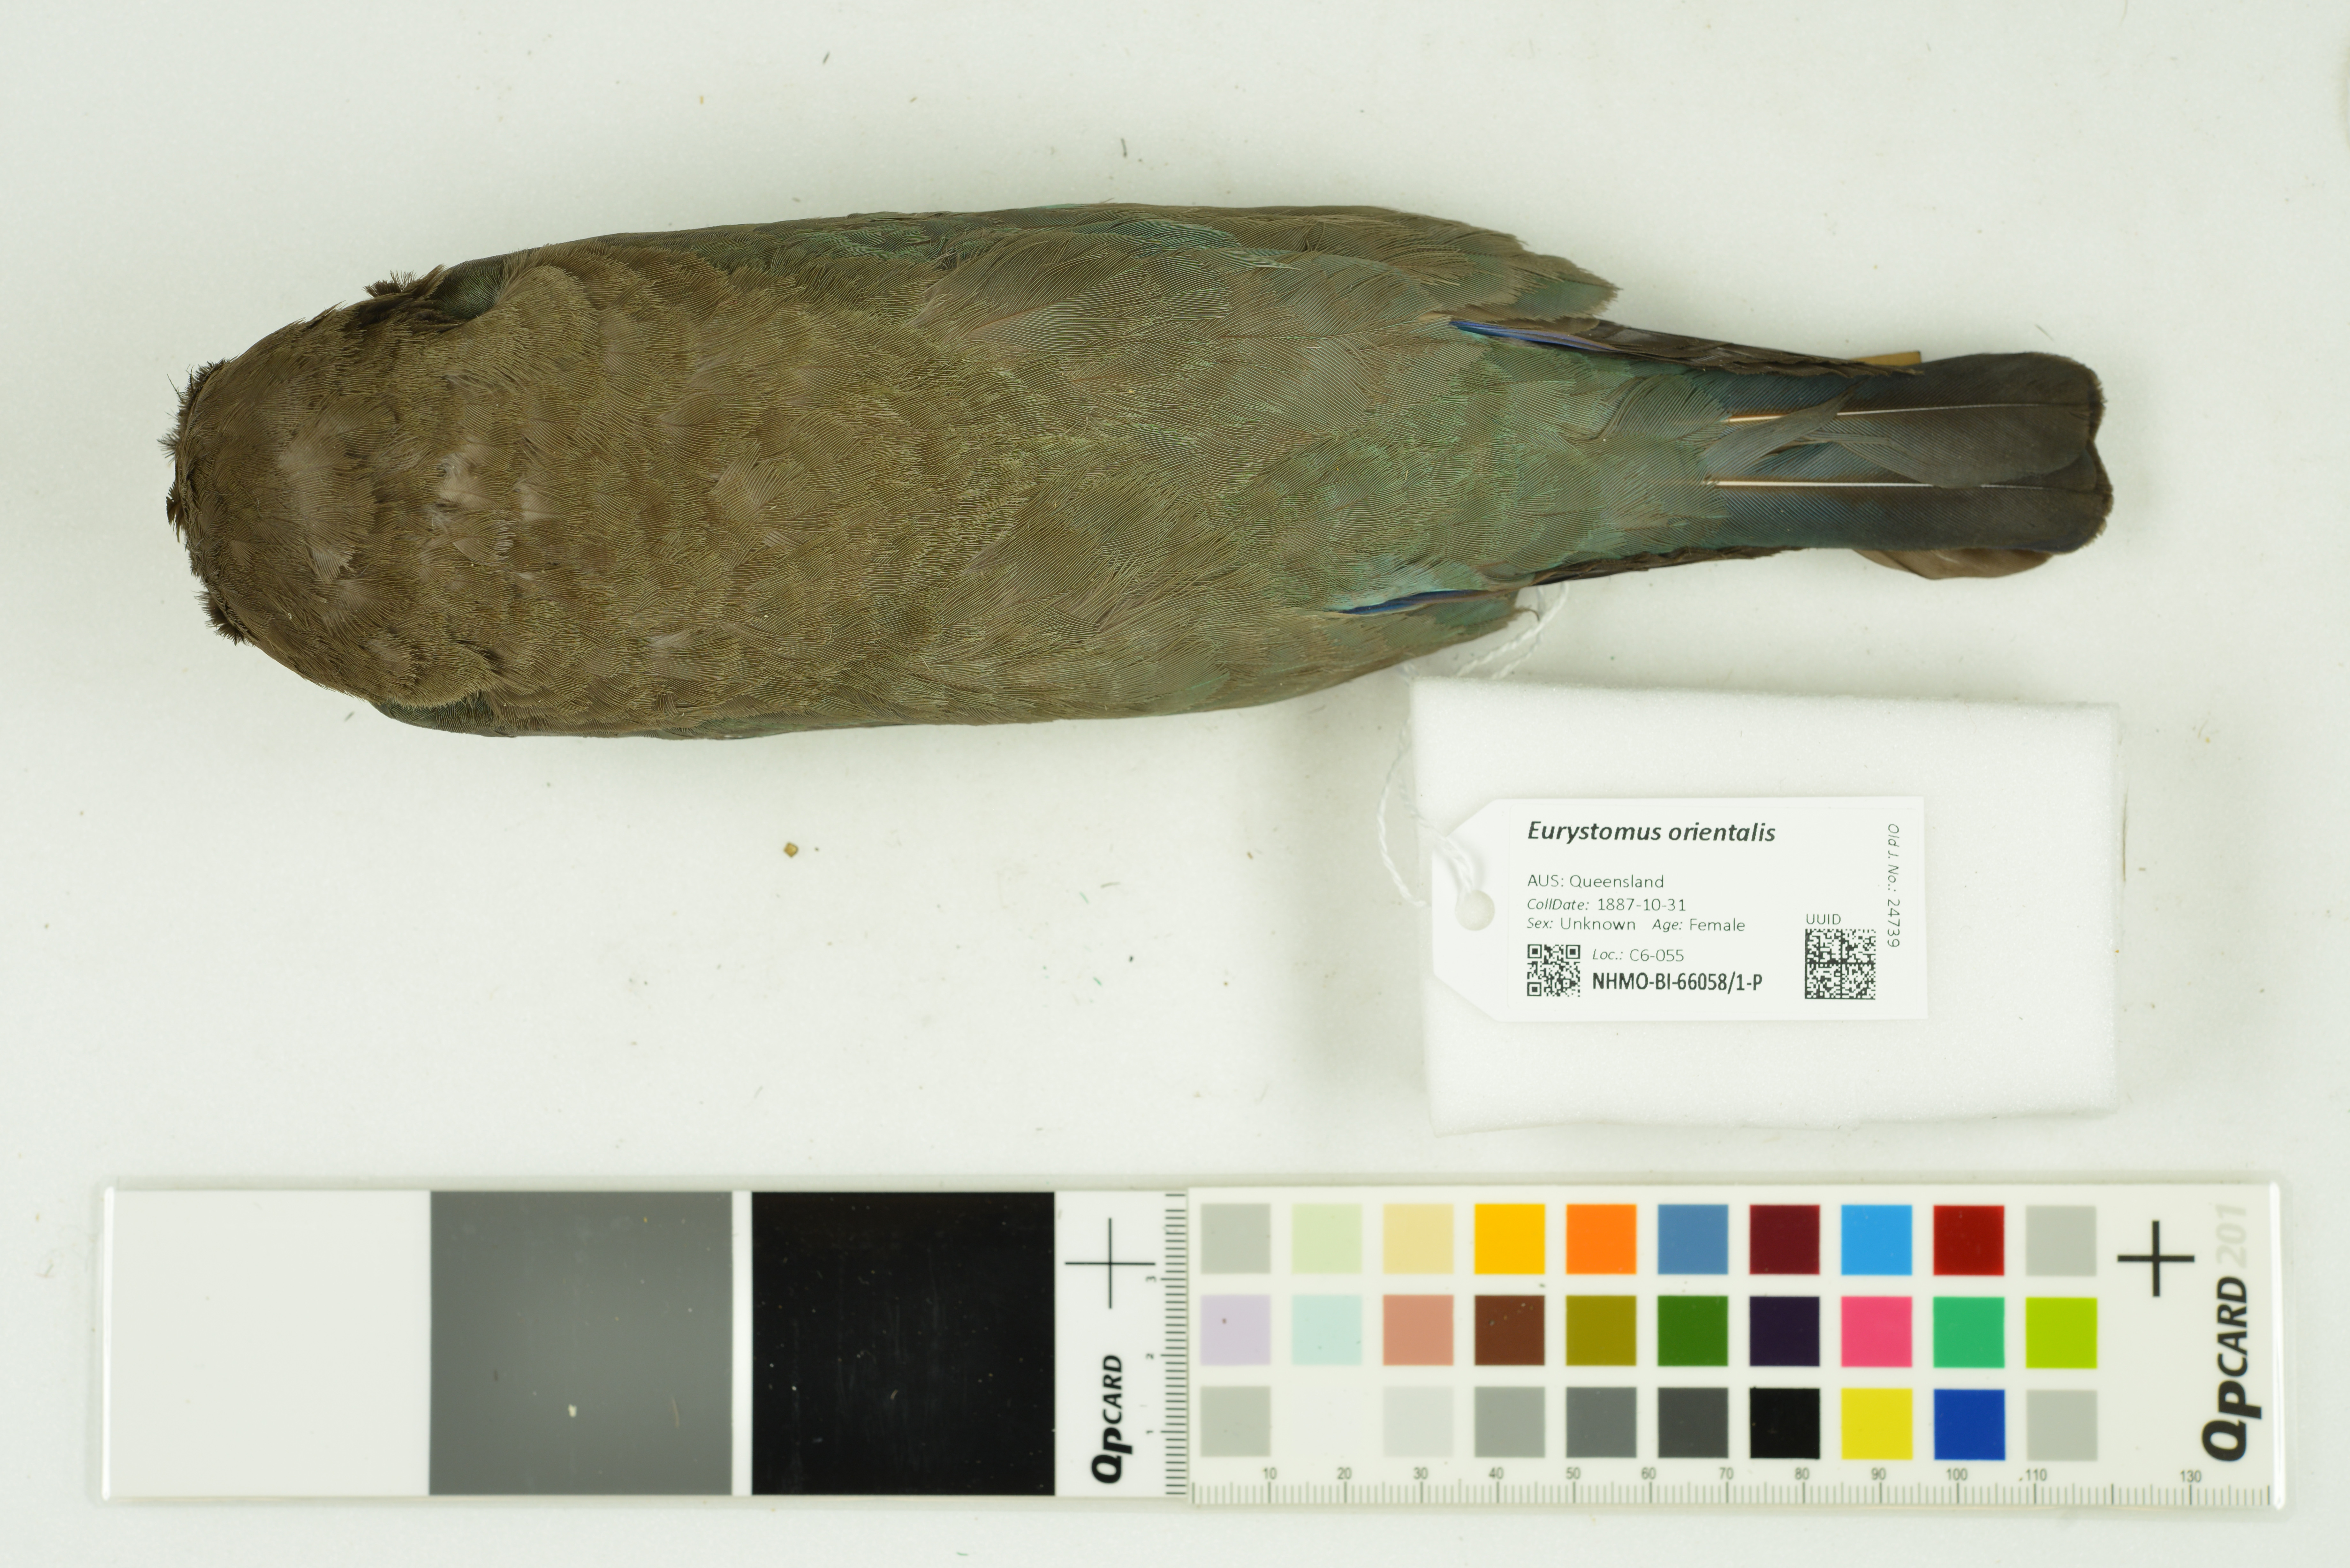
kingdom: Animalia
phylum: Chordata
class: Aves
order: Coraciiformes
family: Coraciidae
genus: Eurystomus
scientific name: Eurystomus orientalis
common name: Oriental dollarbird
